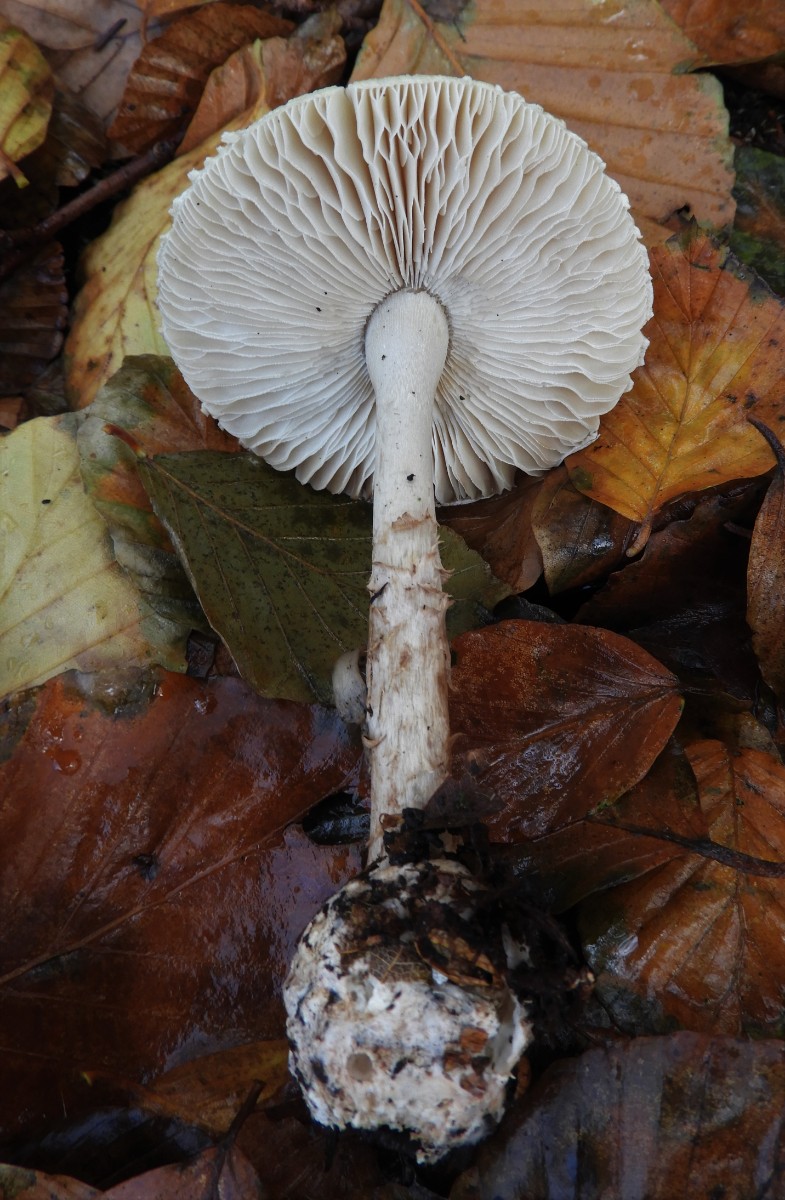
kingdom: Fungi
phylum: Basidiomycota
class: Agaricomycetes
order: Agaricales
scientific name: Agaricales
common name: champignonordenen
